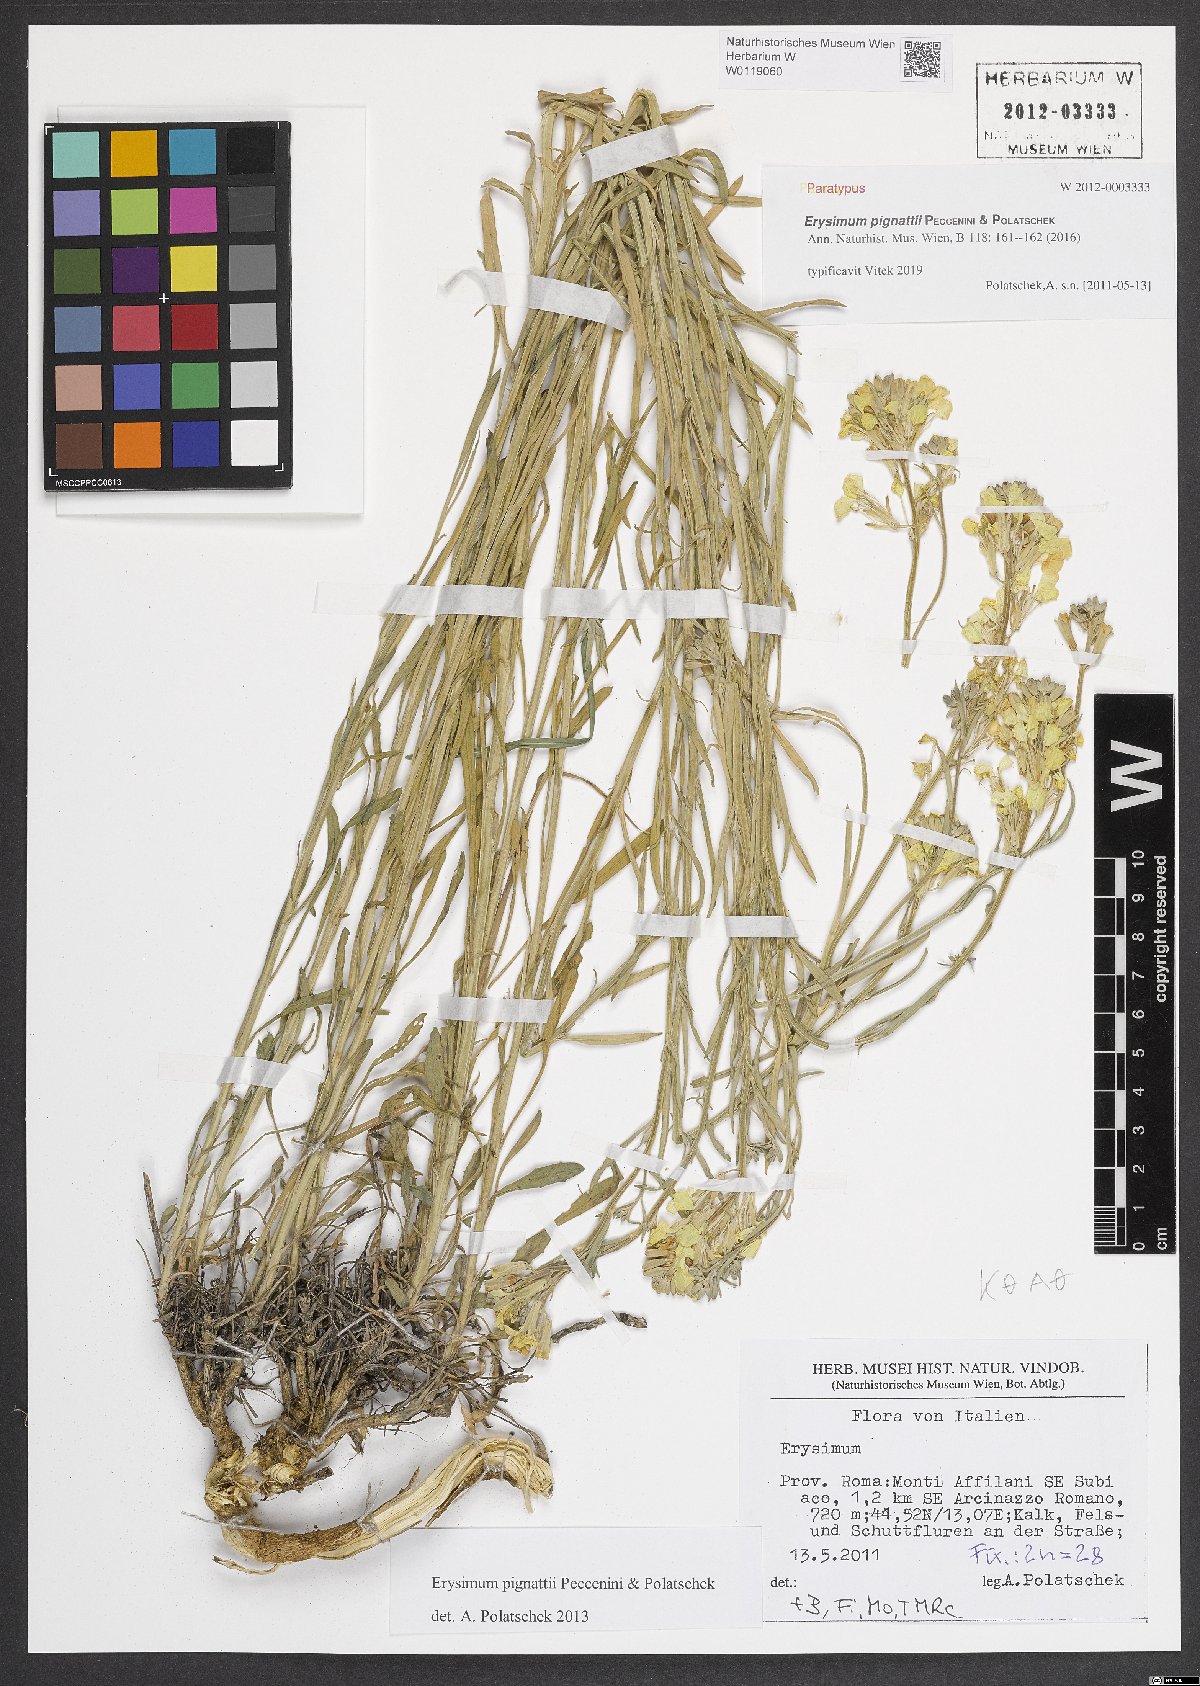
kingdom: Plantae
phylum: Tracheophyta
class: Magnoliopsida
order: Brassicales
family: Brassicaceae
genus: Erysimum
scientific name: Erysimum pignattii
